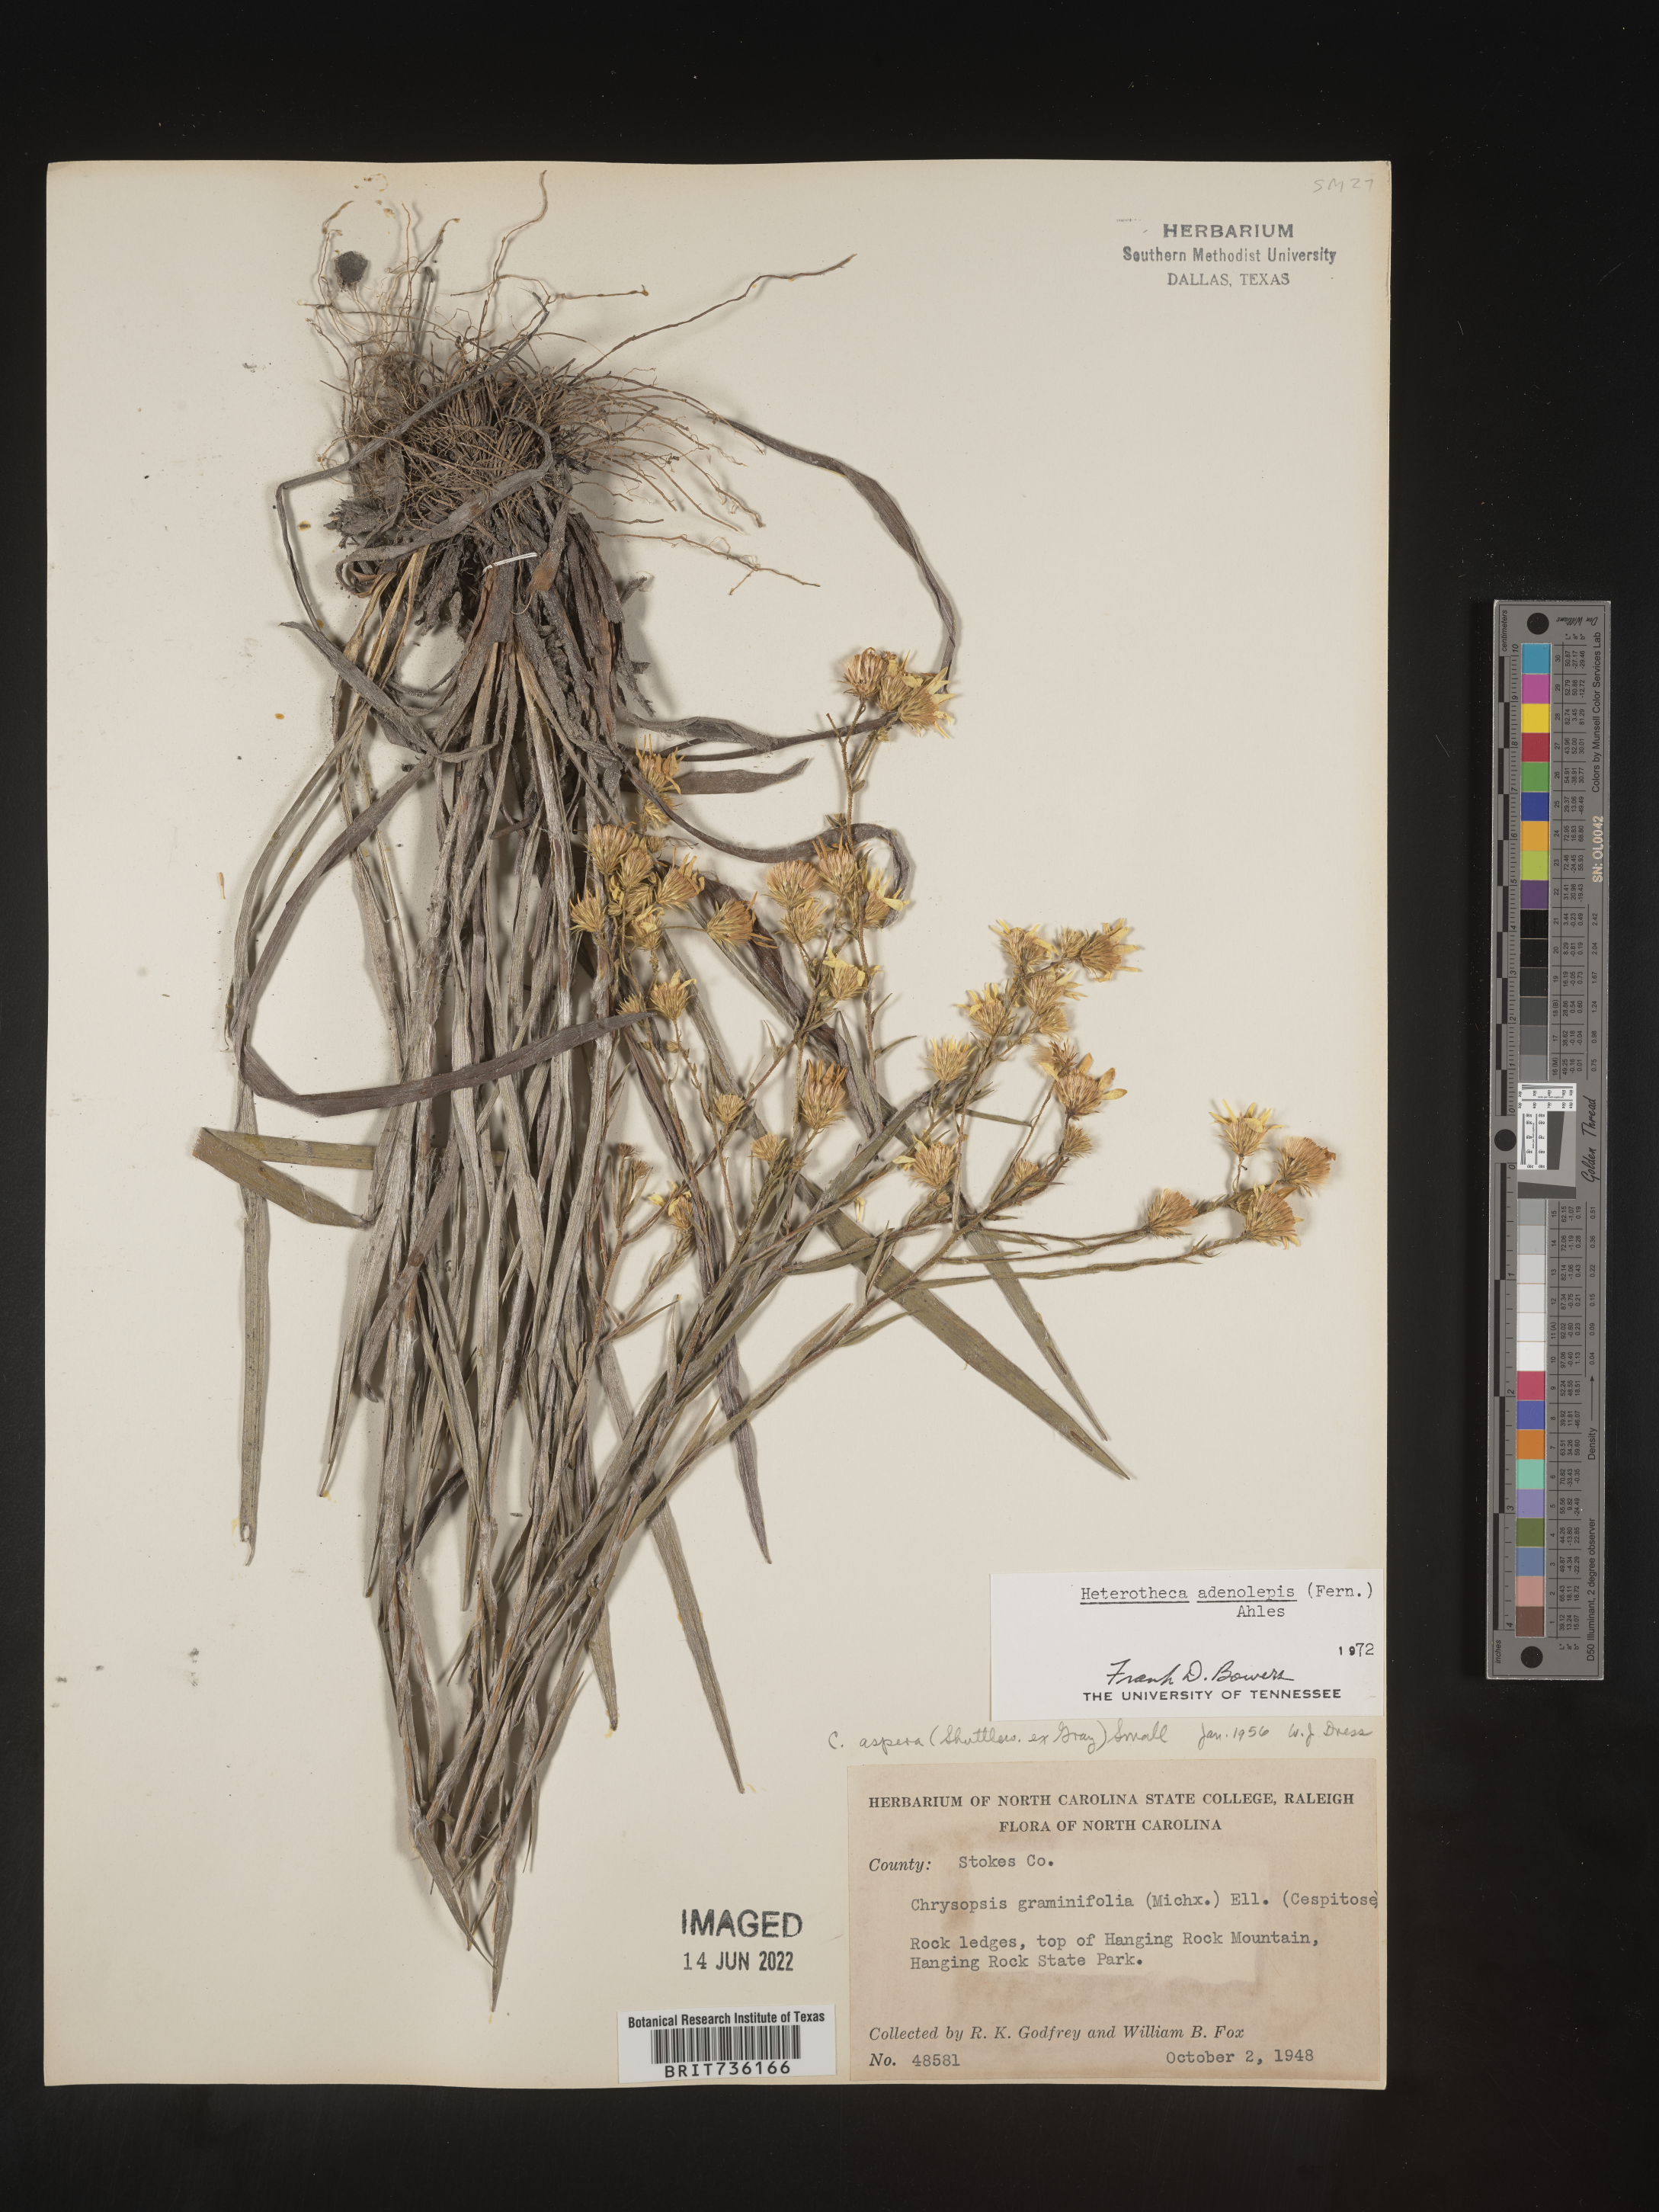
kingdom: Plantae
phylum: Tracheophyta
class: Magnoliopsida
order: Asterales
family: Asteraceae
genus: Pityopsis
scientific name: Pityopsis aspera
